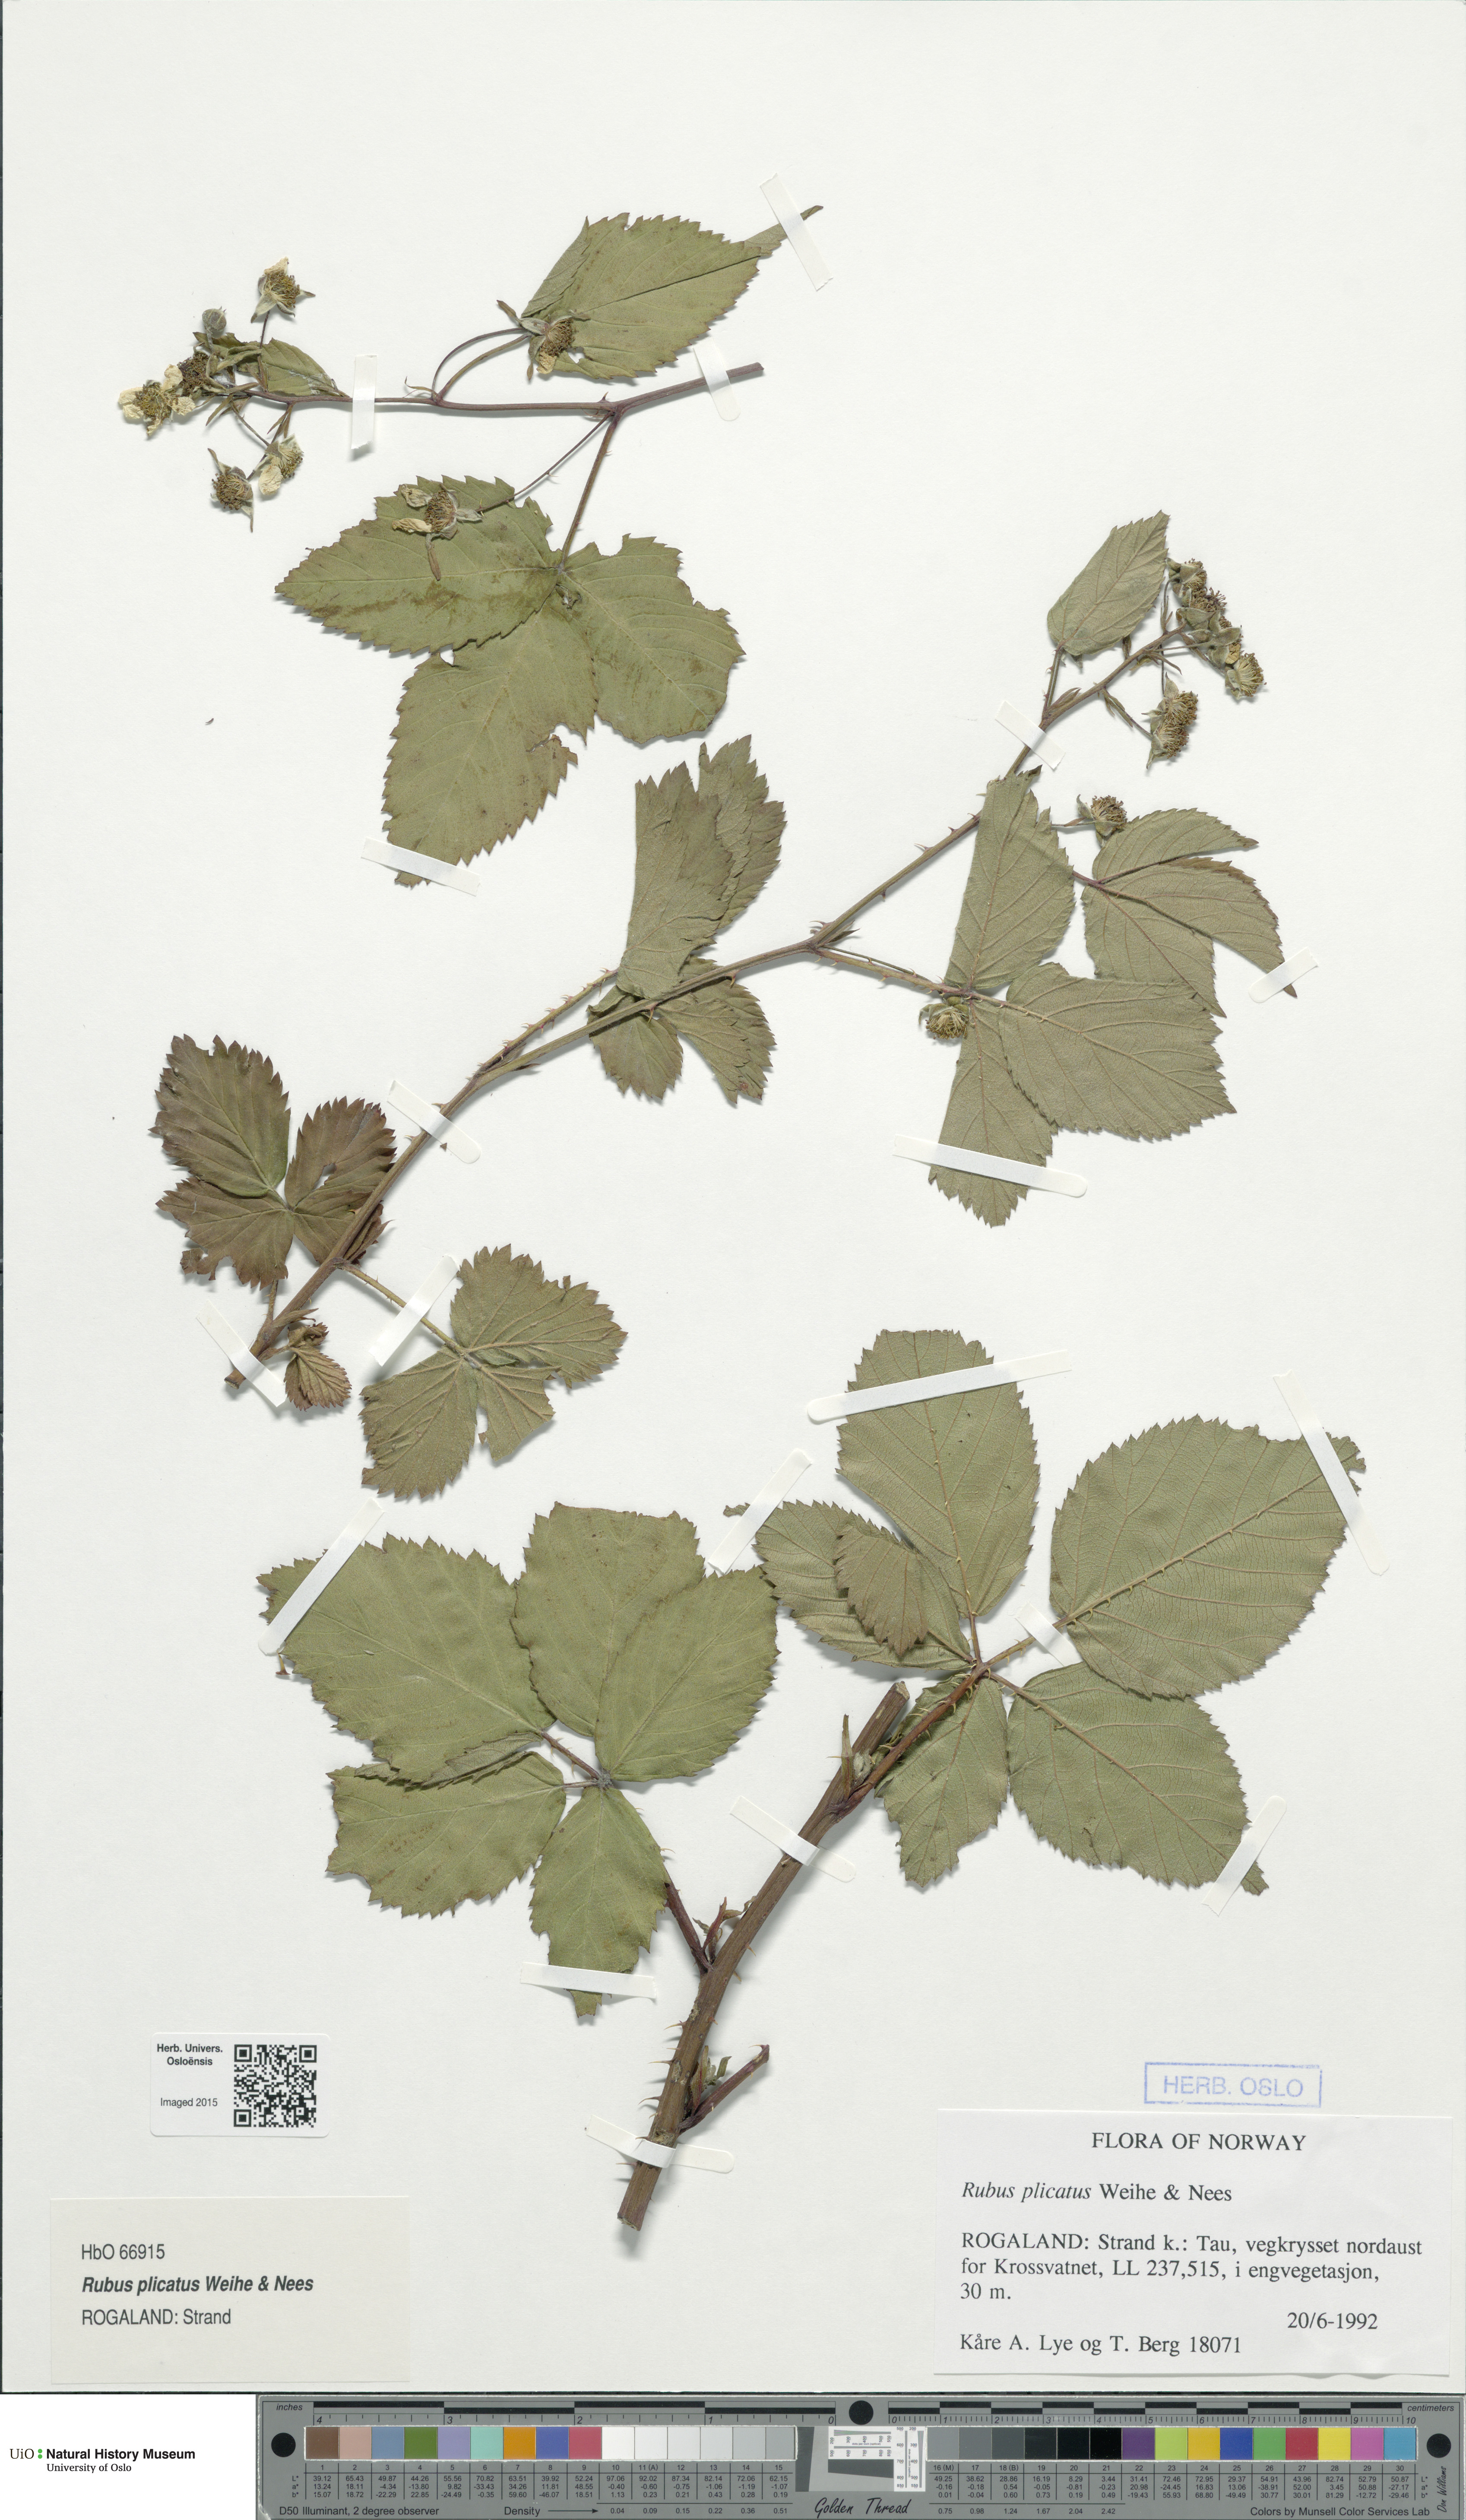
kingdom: Plantae
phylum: Tracheophyta
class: Magnoliopsida
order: Rosales
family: Rosaceae
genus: Rubus
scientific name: Rubus fruticosus
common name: Blackberry, bramble
